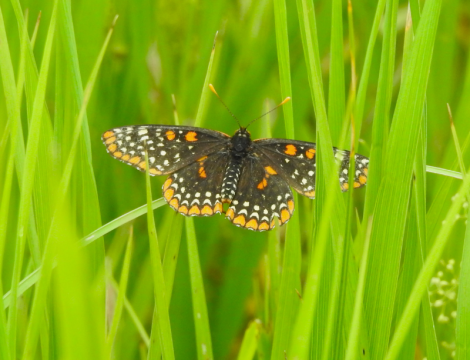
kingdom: Animalia
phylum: Arthropoda
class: Insecta
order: Lepidoptera
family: Nymphalidae
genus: Euphydryas
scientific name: Euphydryas phaeton
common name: Baltimore Checkerspot
